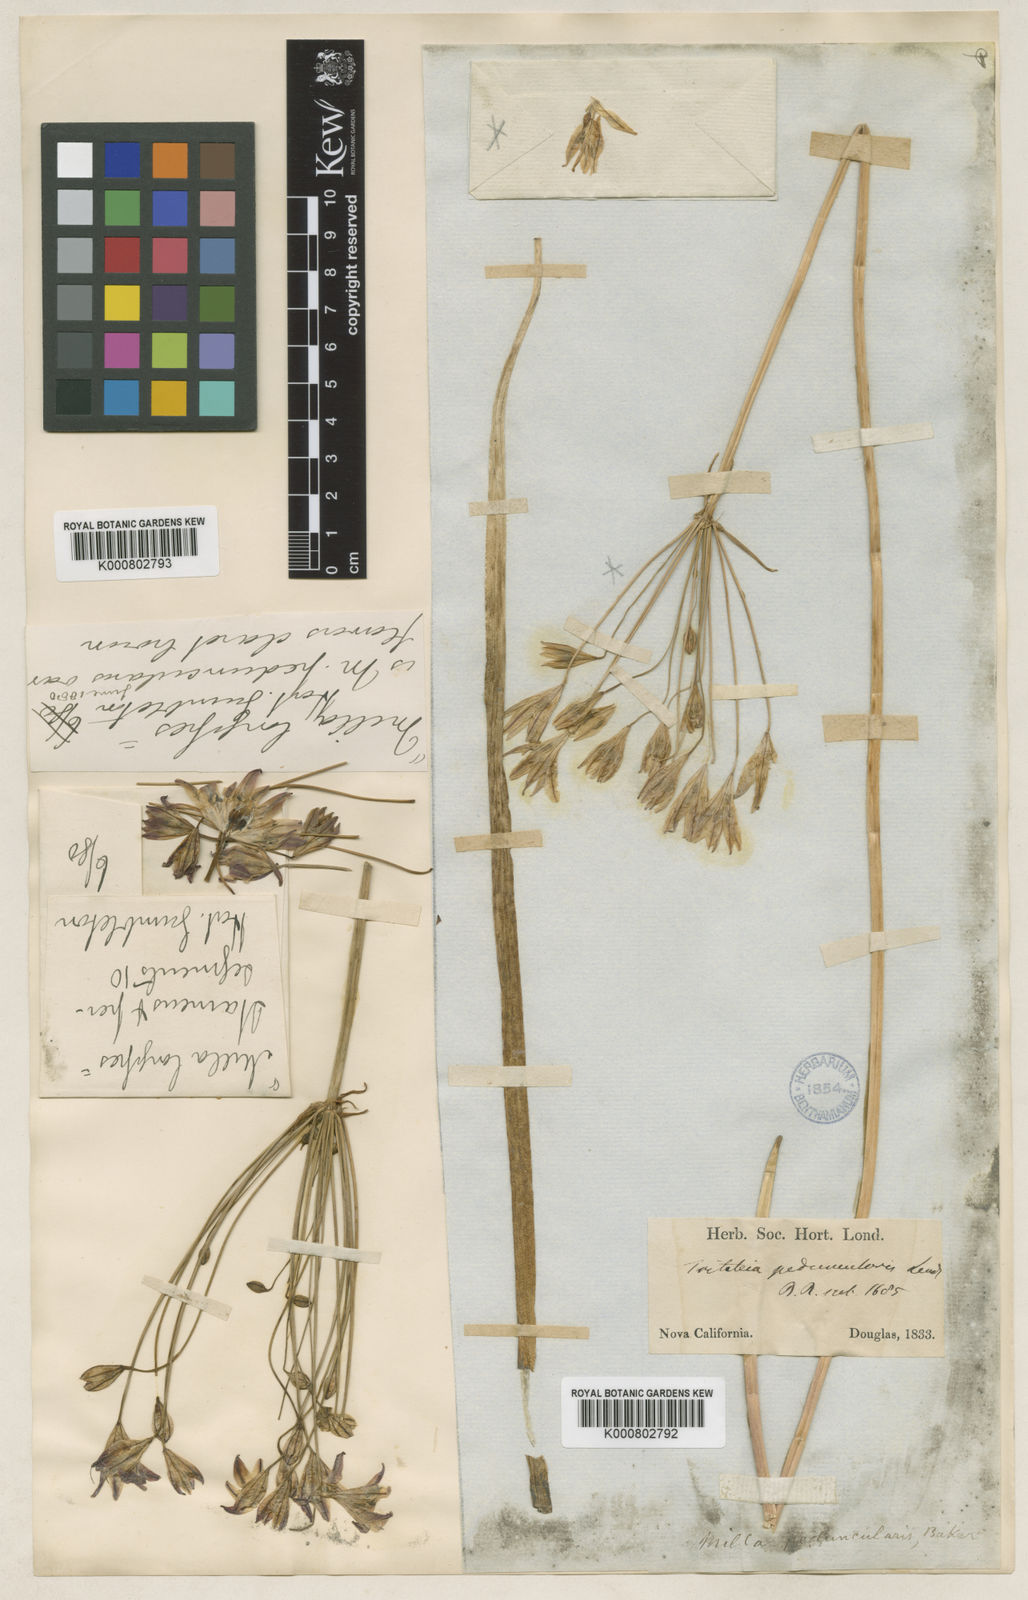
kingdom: Plantae
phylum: Tracheophyta
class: Liliopsida
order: Asparagales
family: Asparagaceae
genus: Triteleia
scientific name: Triteleia peduncularis
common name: Long-ray brodiaea
